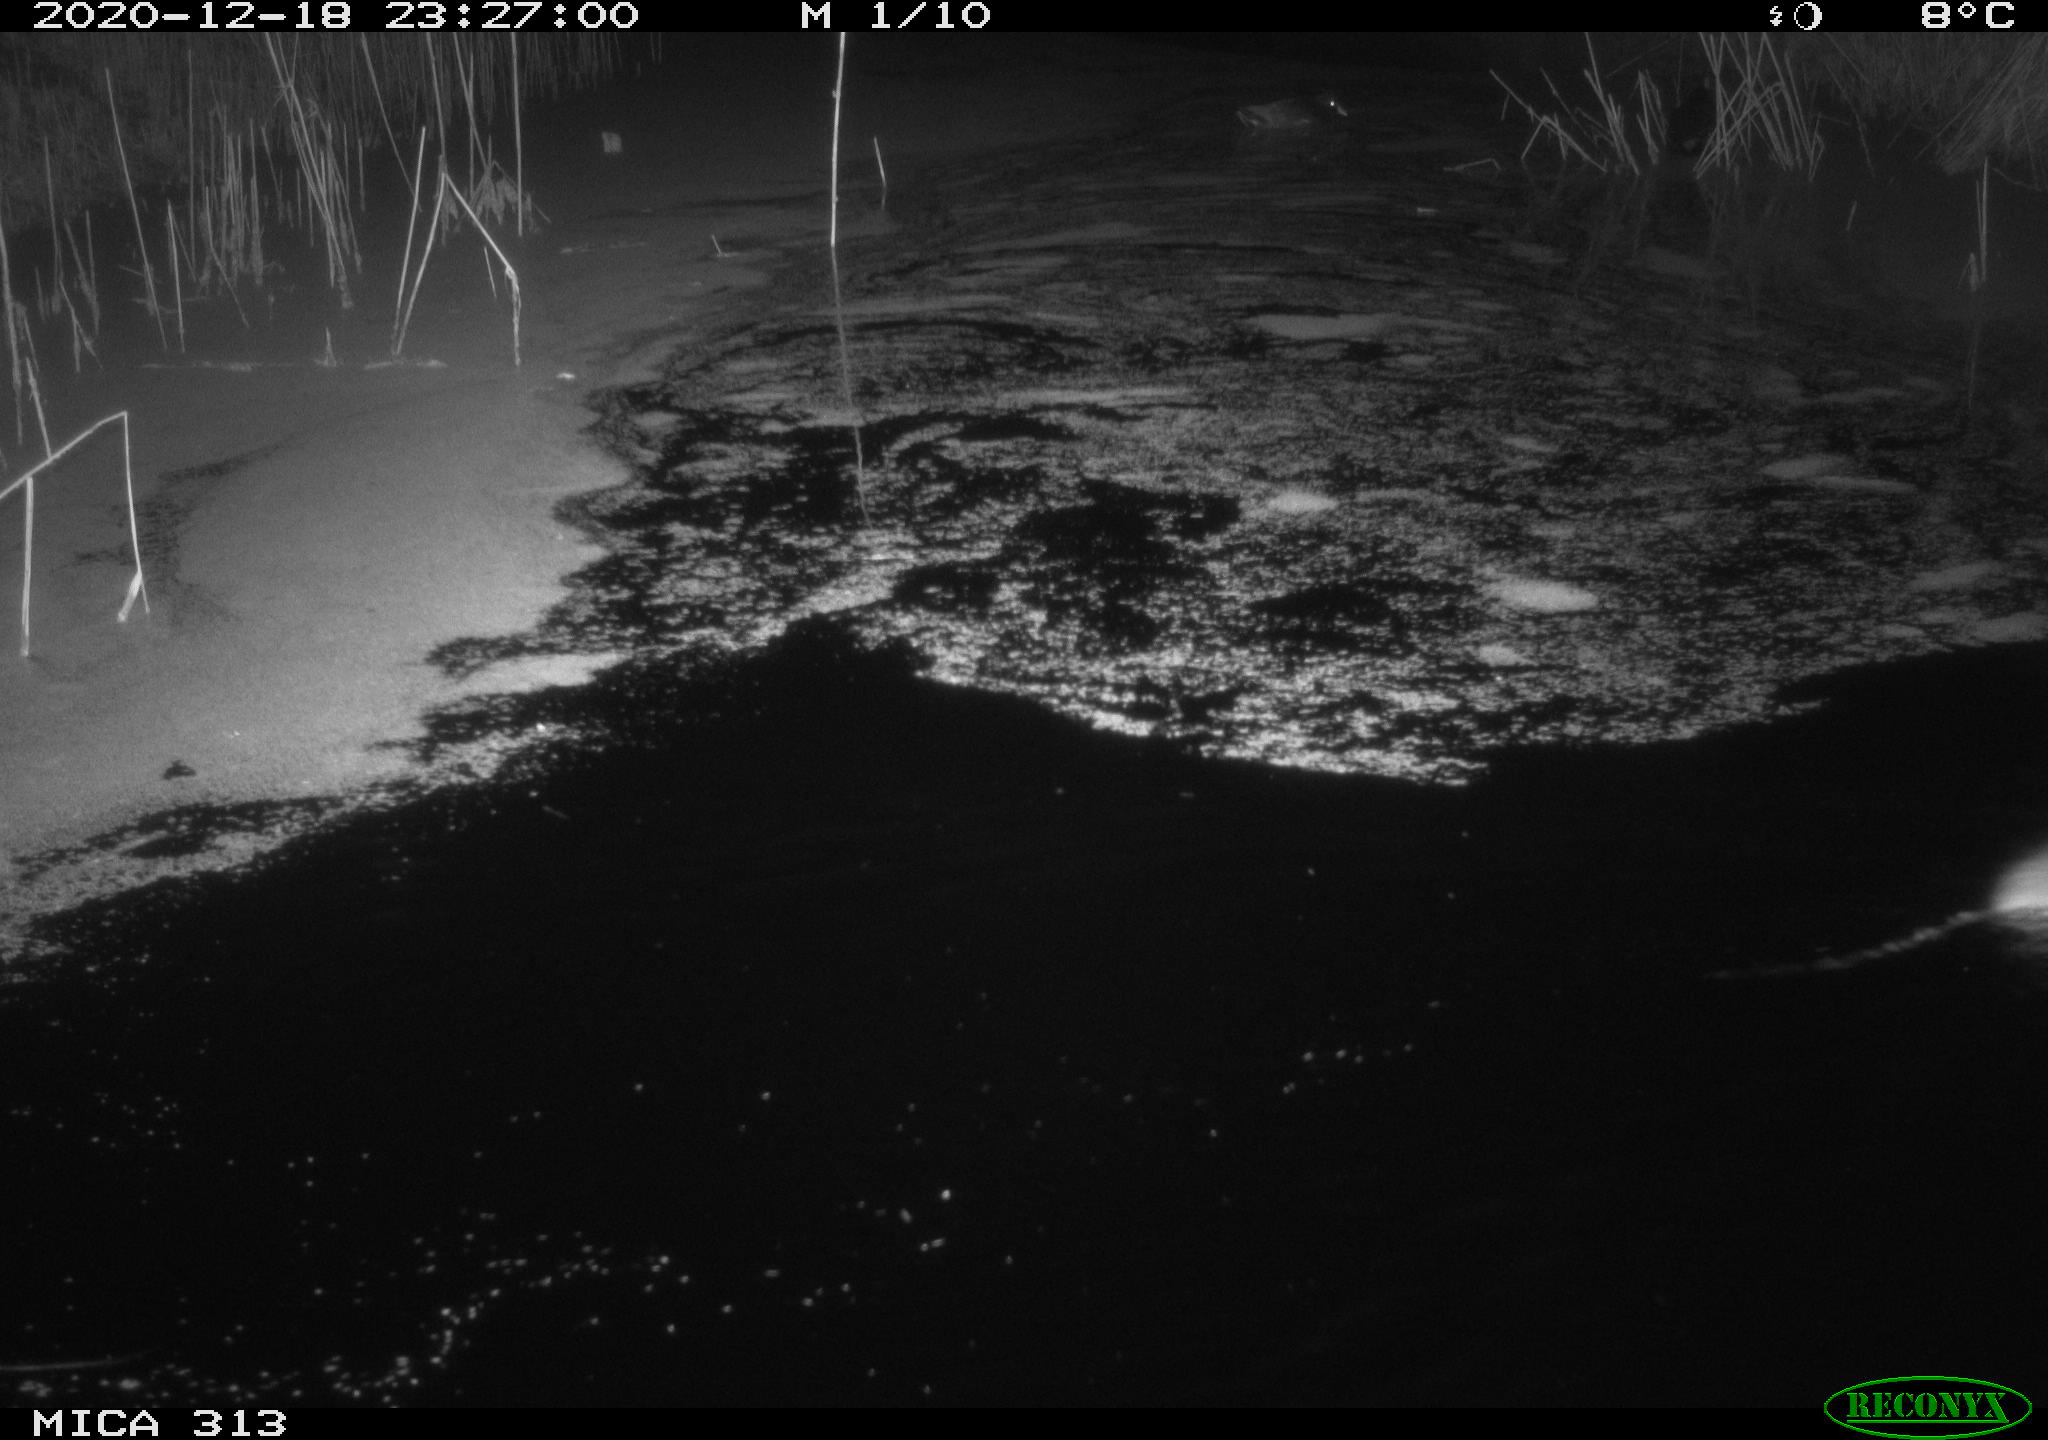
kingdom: Animalia
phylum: Chordata
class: Aves
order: Gruiformes
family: Rallidae
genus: Gallinula
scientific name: Gallinula chloropus
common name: Common moorhen
